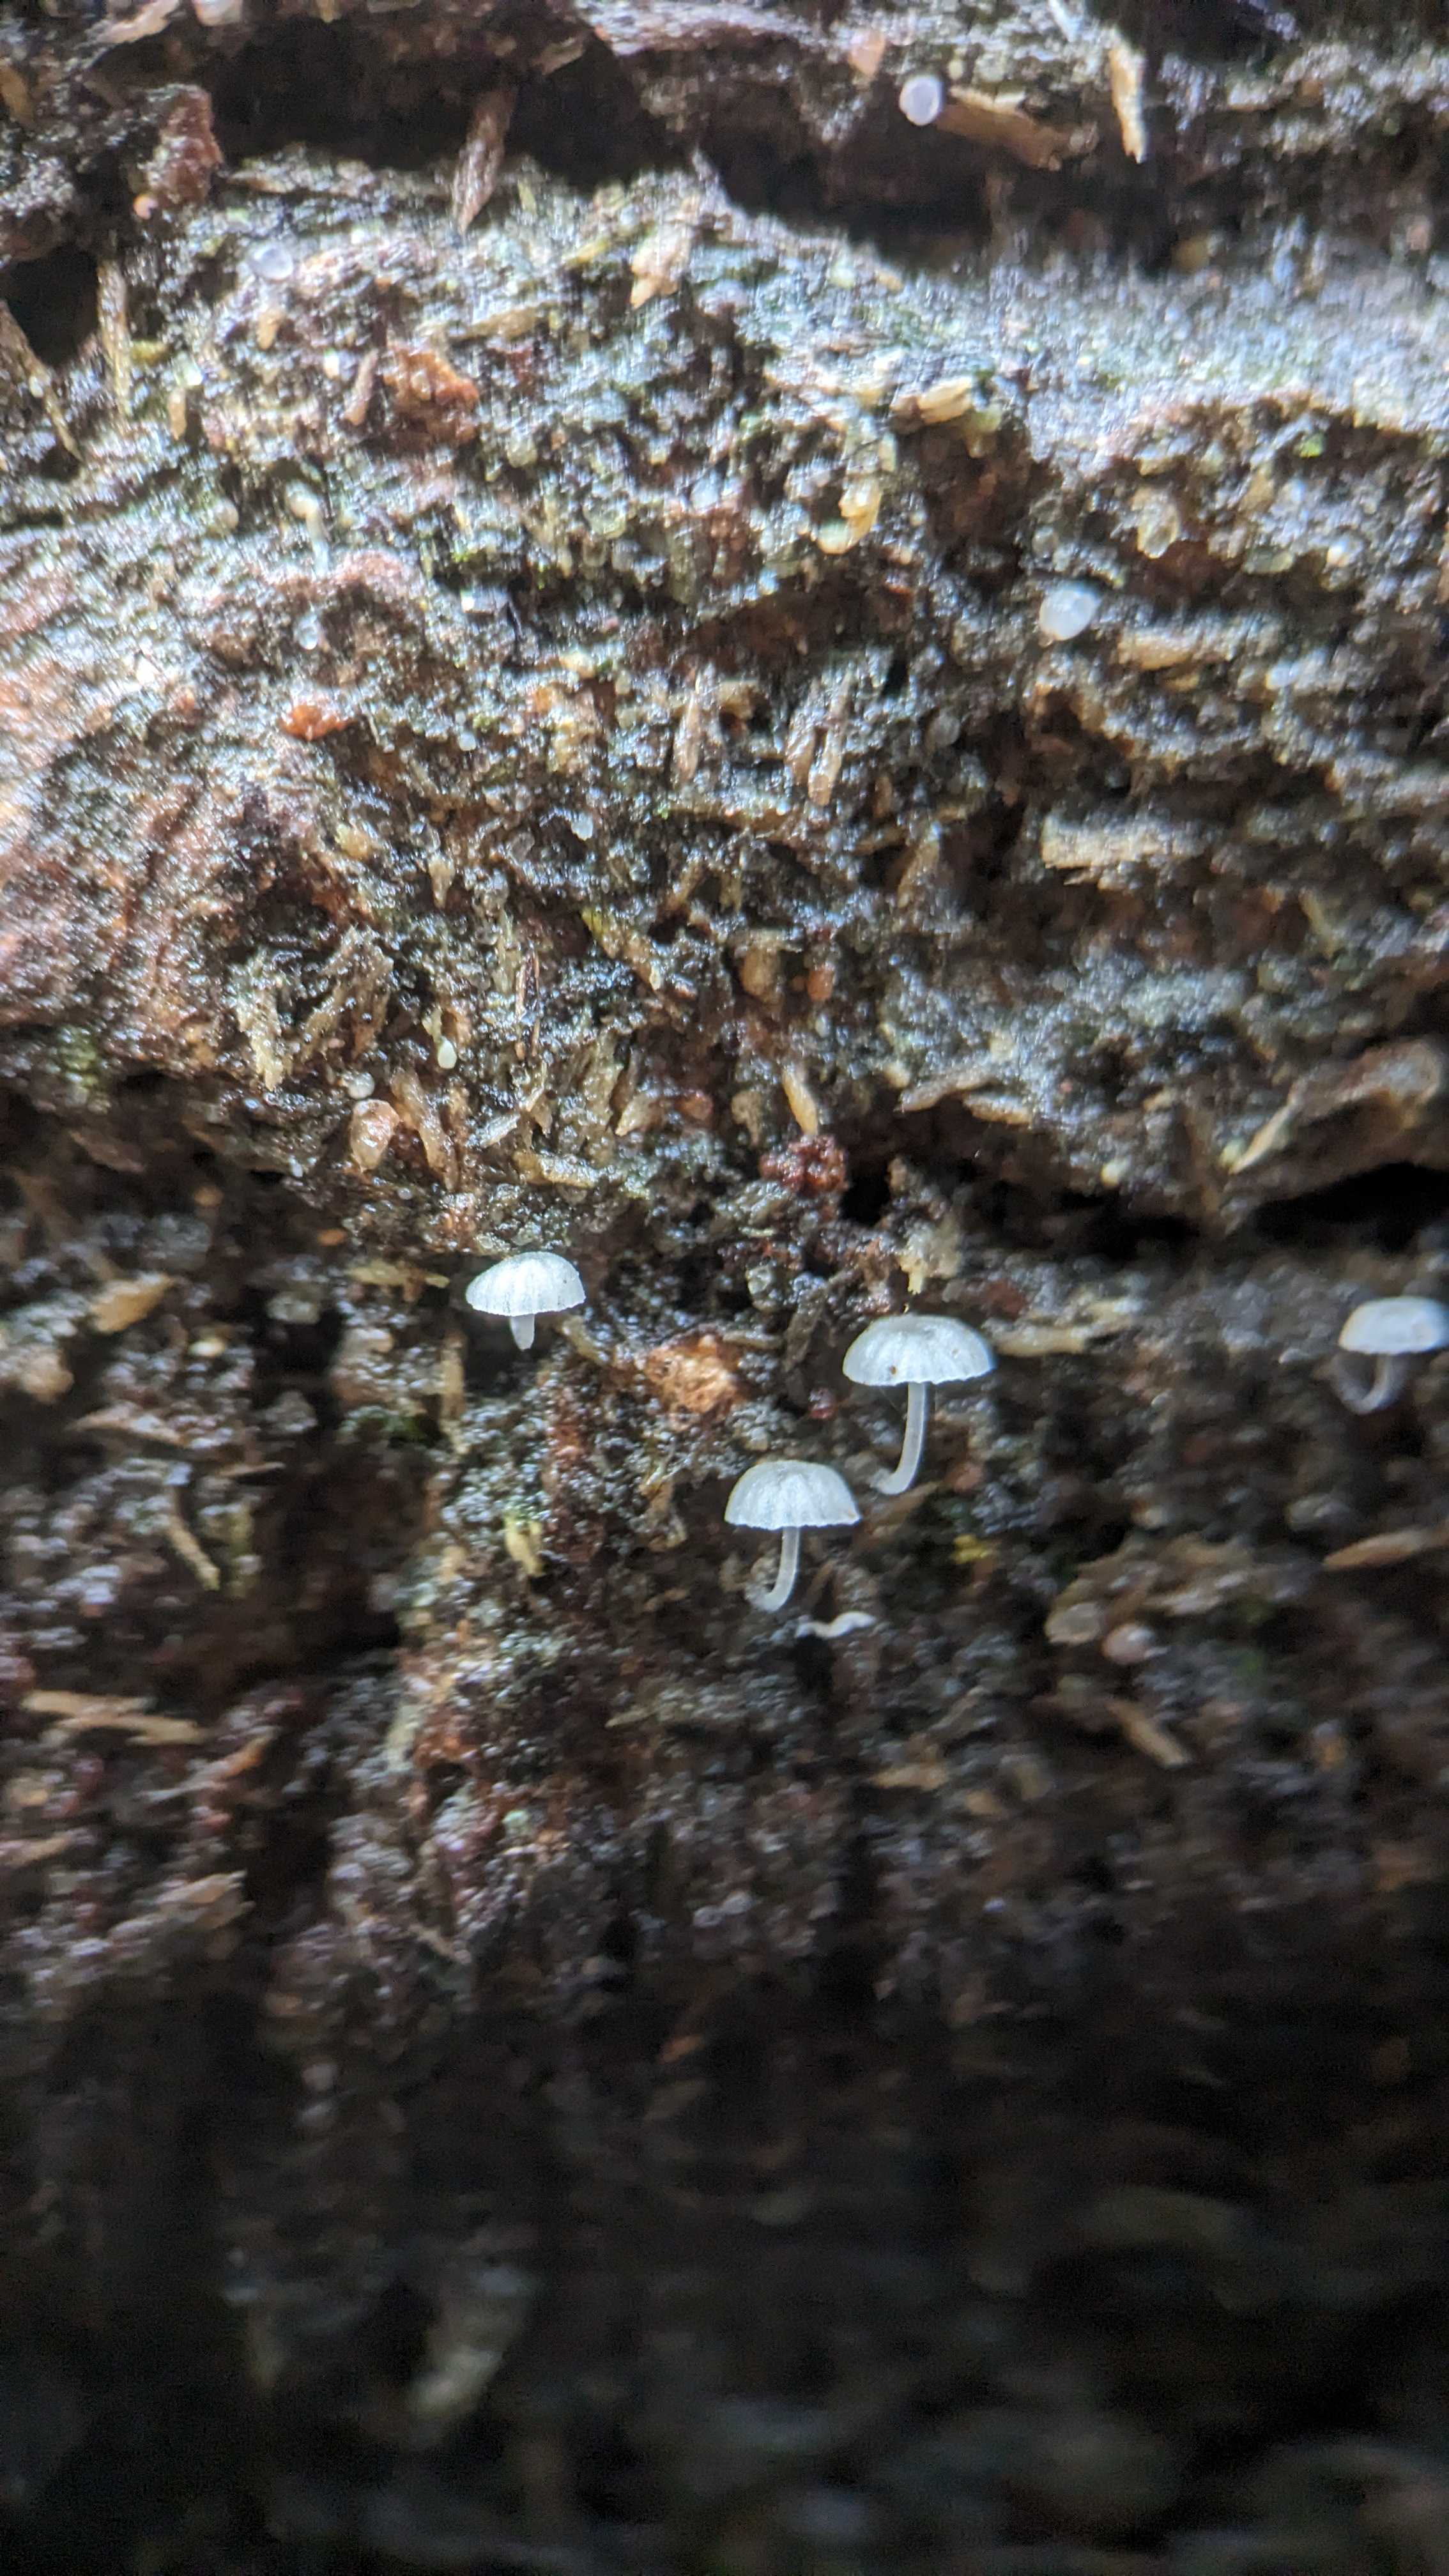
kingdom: Fungi
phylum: Basidiomycota
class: Agaricomycetes
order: Agaricales
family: Mycenaceae
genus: Mycena
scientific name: Mycena
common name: huesvamp
